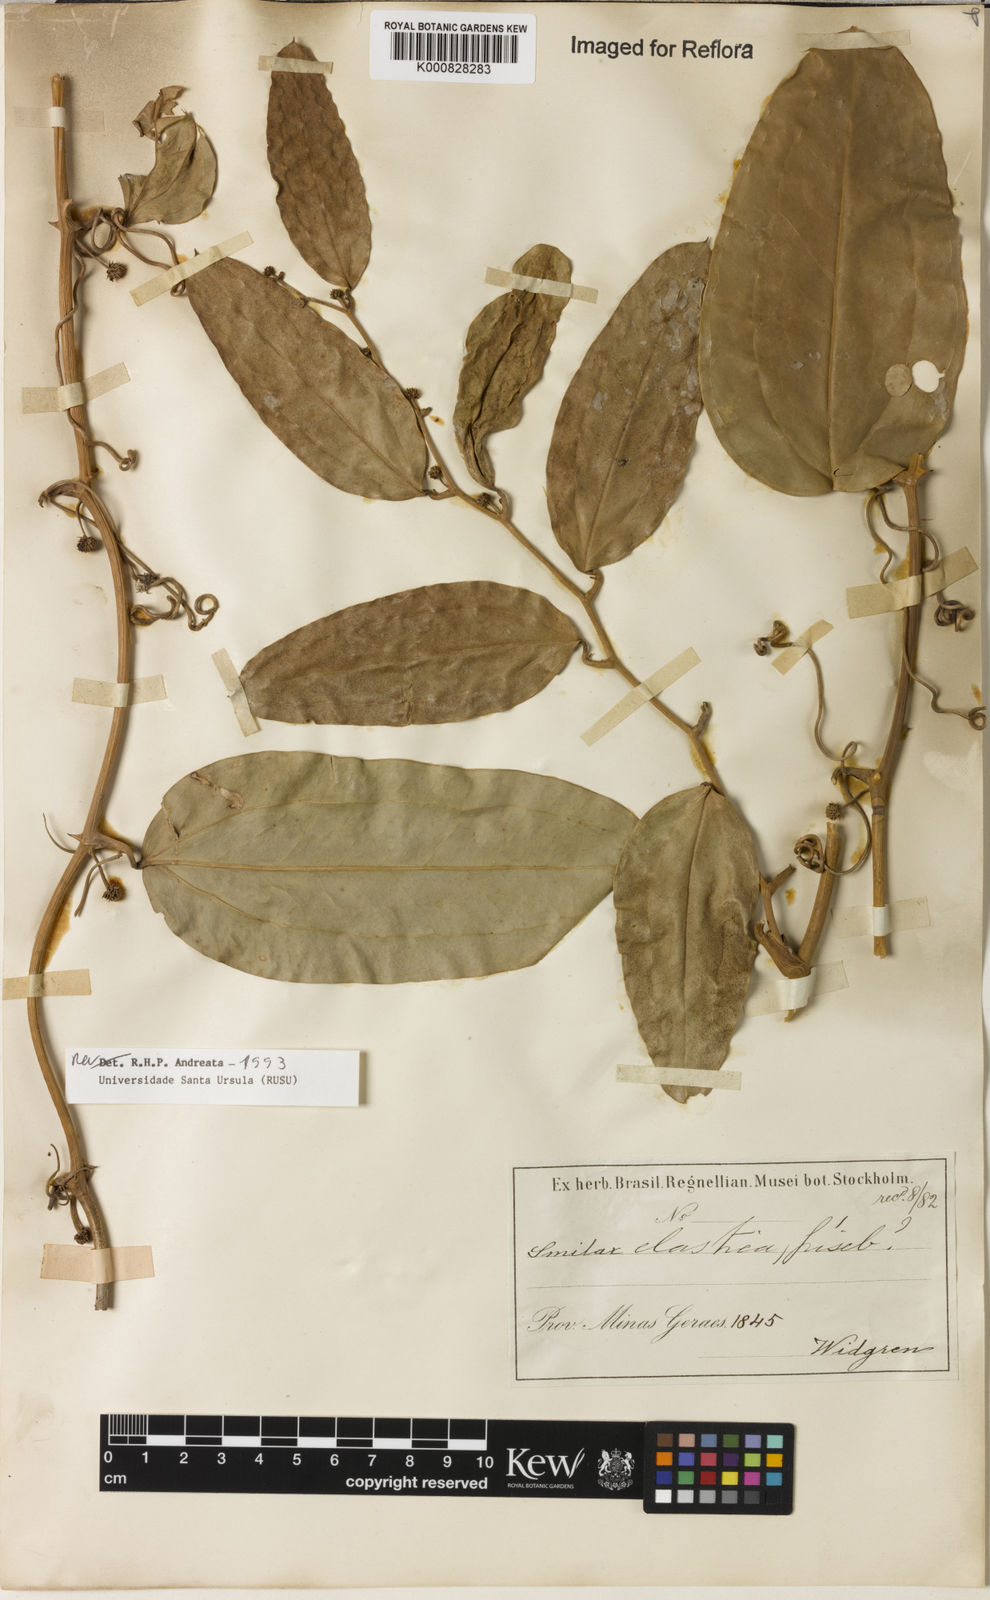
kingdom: Plantae
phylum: Tracheophyta
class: Liliopsida
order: Liliales
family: Smilacaceae
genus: Smilax
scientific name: Smilax elastica
